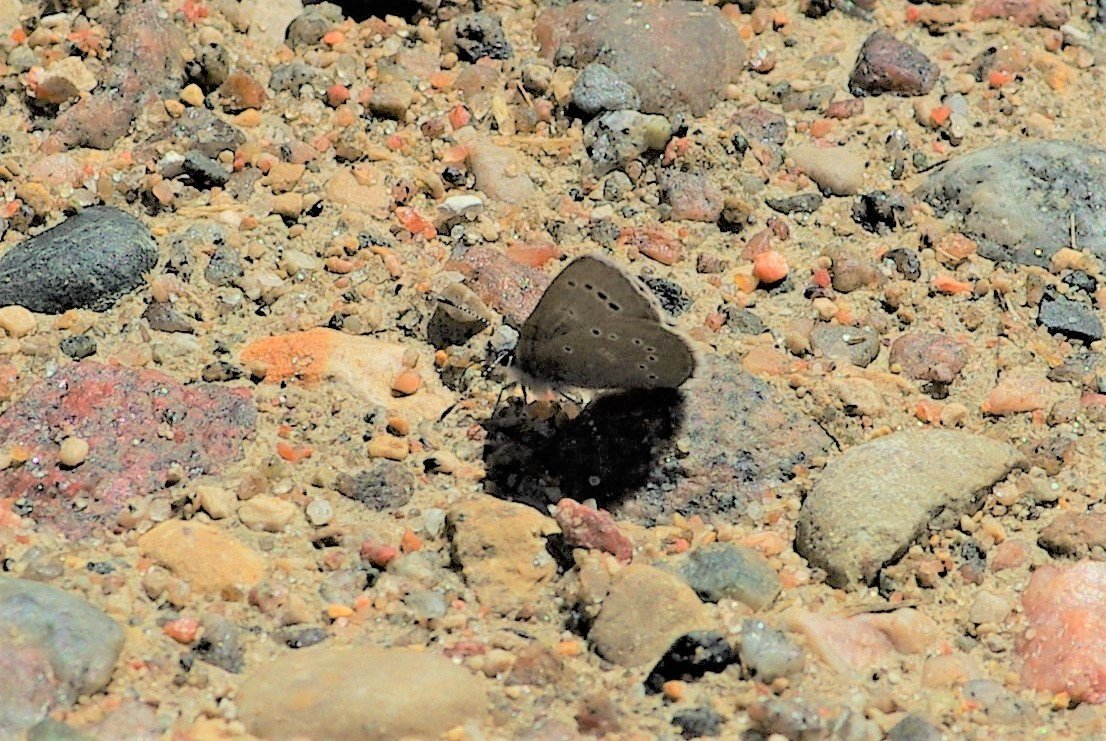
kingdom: Animalia
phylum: Arthropoda
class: Insecta
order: Lepidoptera
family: Lycaenidae
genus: Glaucopsyche
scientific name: Glaucopsyche lygdamus
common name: Silvery Blue
